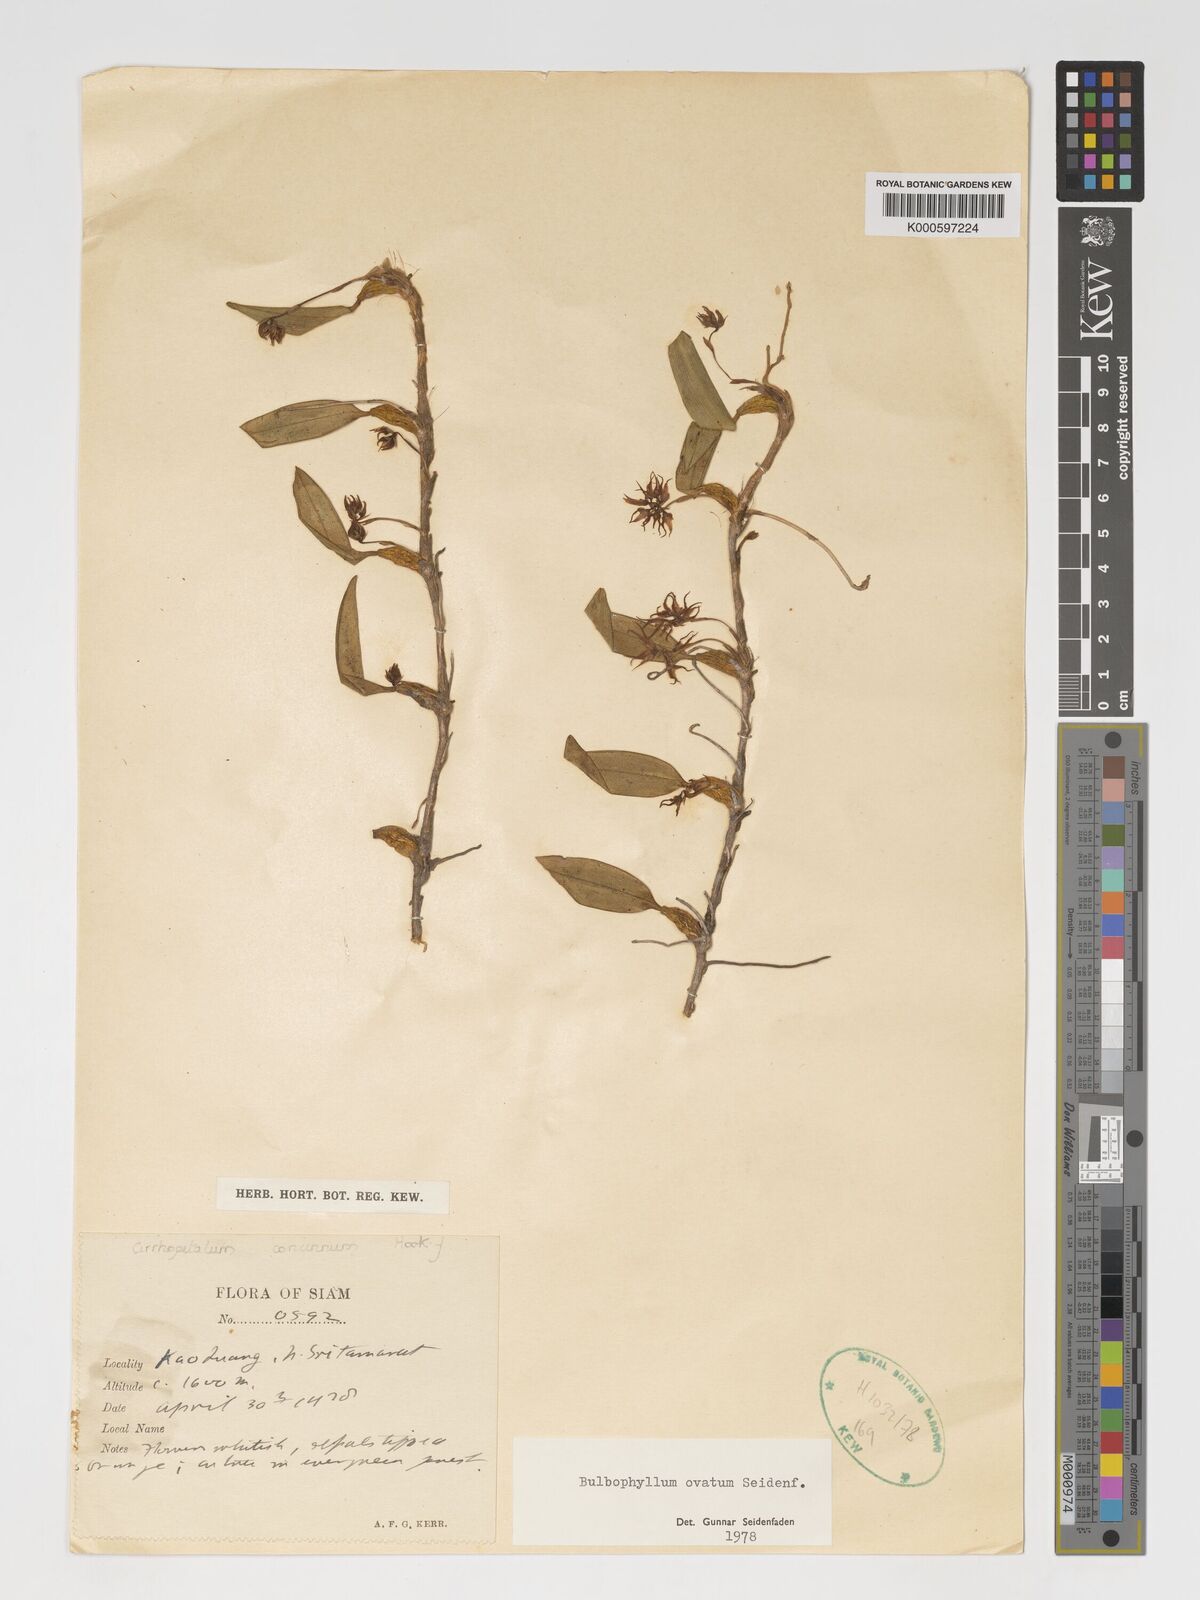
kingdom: Plantae
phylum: Tracheophyta
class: Liliopsida
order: Asparagales
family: Orchidaceae
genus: Bulbophyllum
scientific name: Bulbophyllum ovatum
